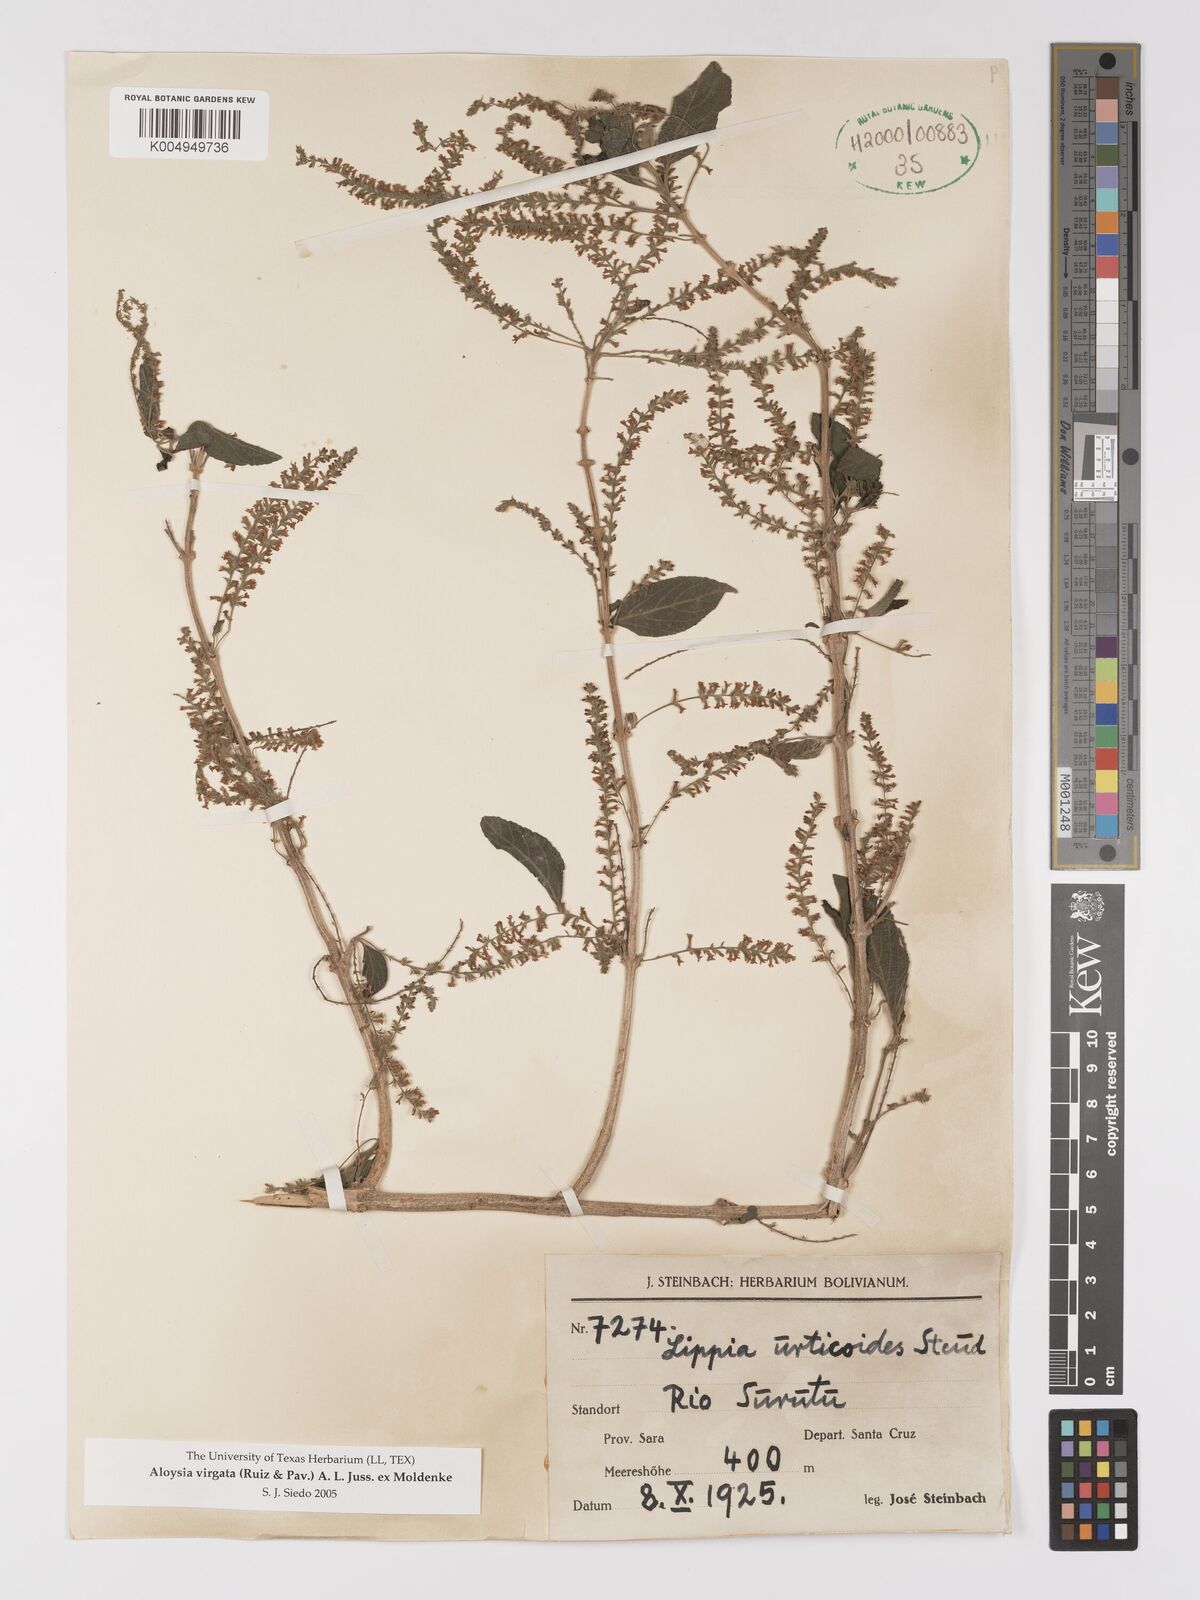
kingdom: Plantae
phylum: Tracheophyta
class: Magnoliopsida
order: Lamiales
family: Verbenaceae
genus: Aloysia
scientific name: Aloysia virgata
